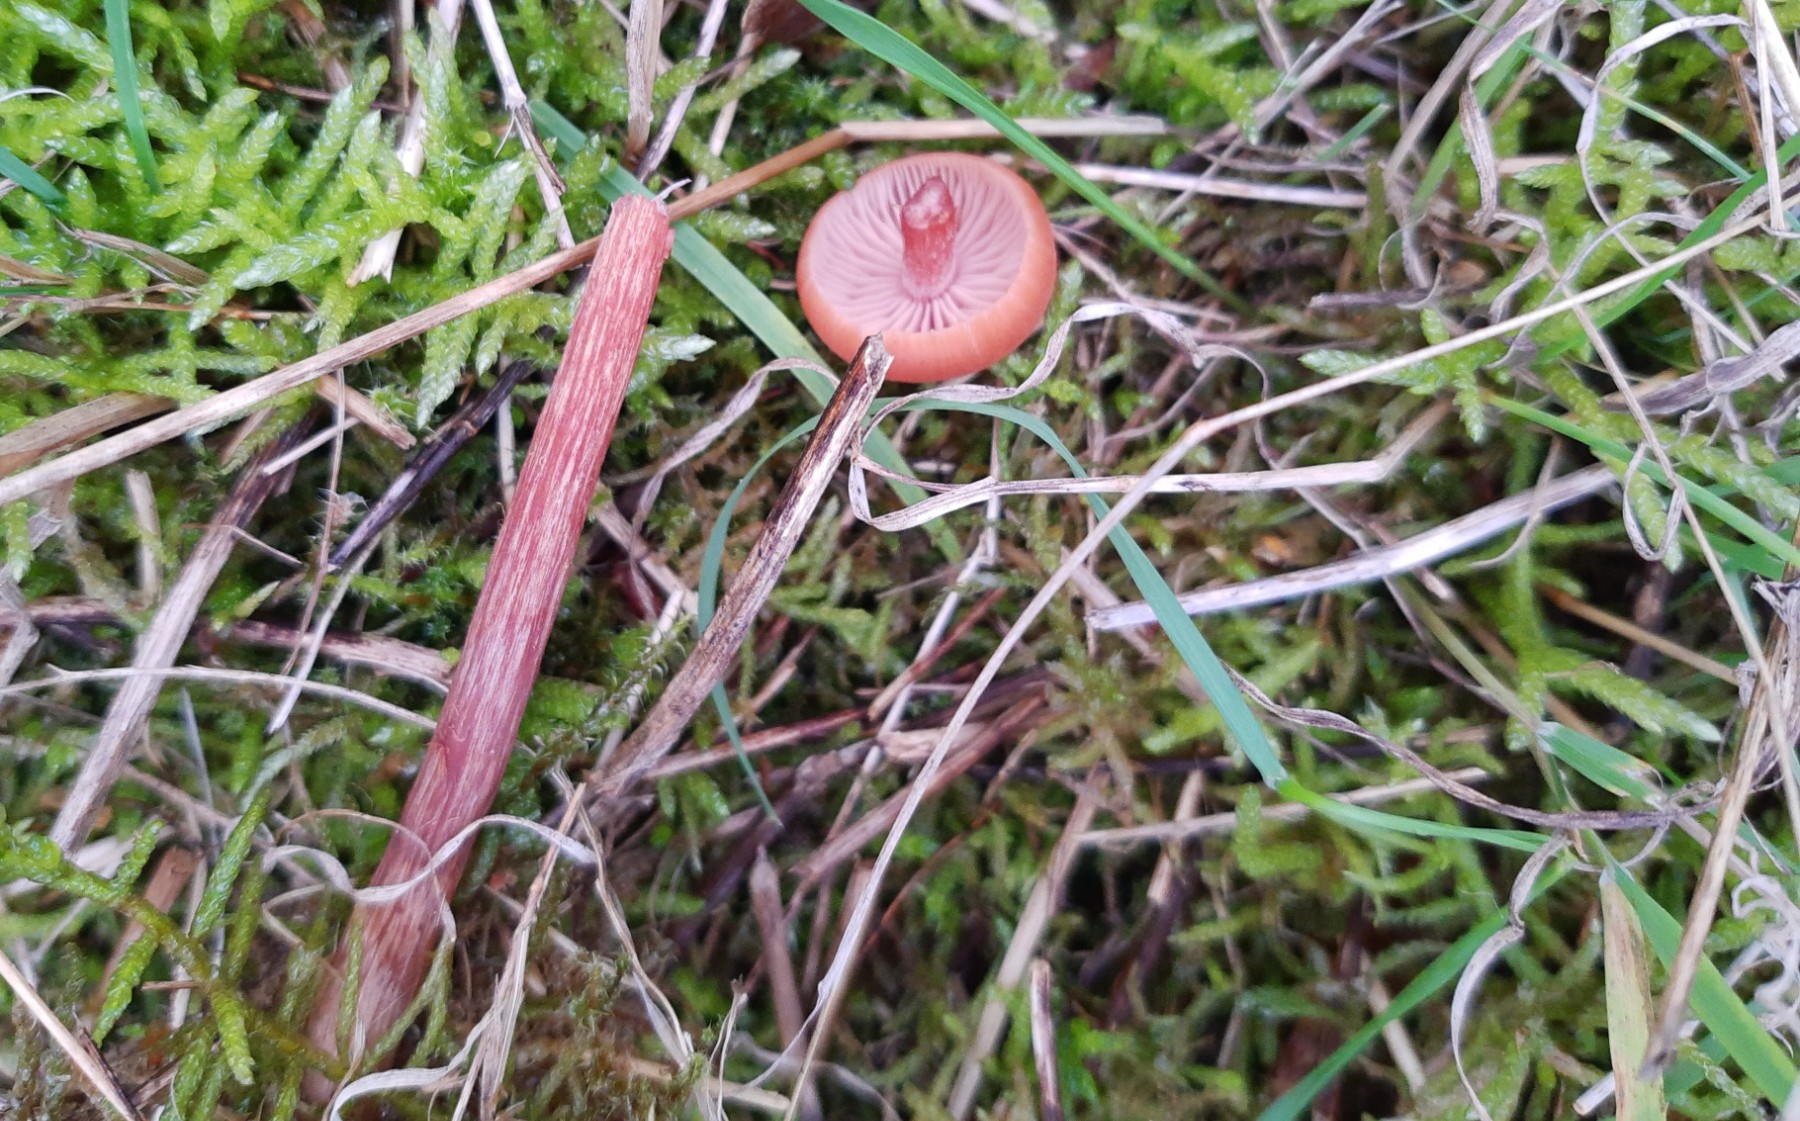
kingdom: Fungi
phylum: Basidiomycota
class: Agaricomycetes
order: Agaricales
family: Hydnangiaceae
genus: Laccaria
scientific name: Laccaria proxima
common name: stor ametysthat
